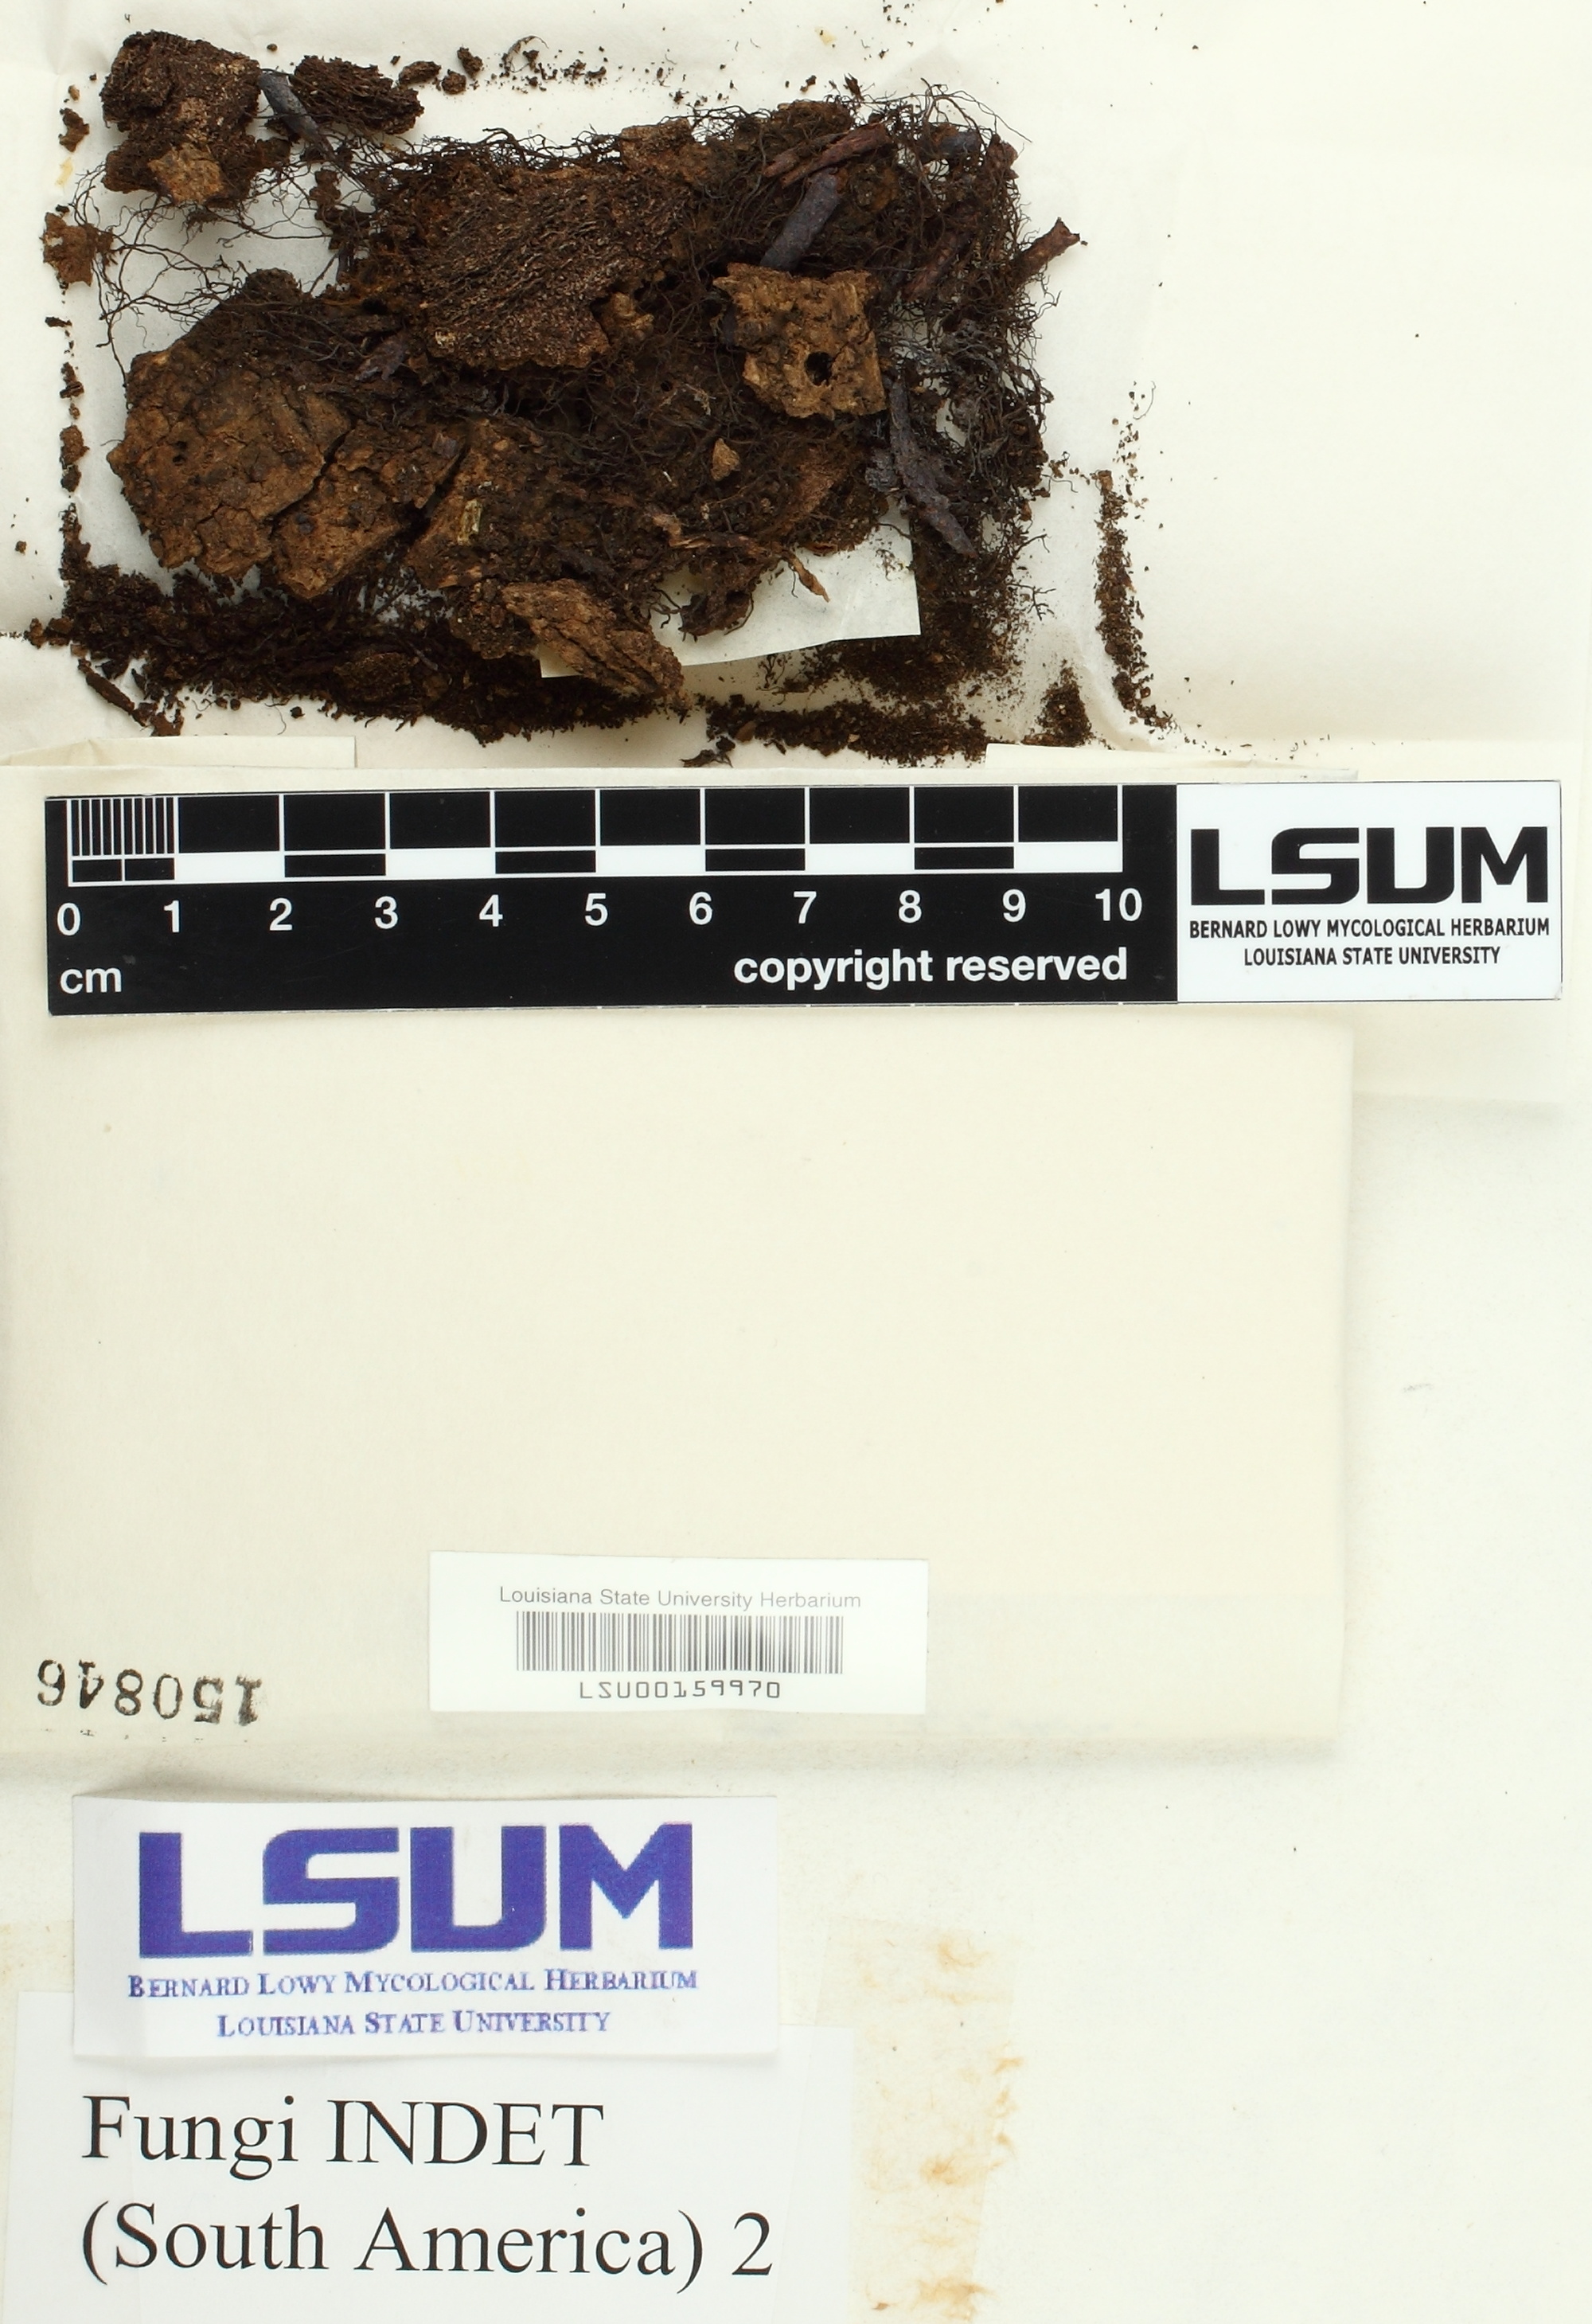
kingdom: Fungi
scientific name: Fungi
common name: Fungi
